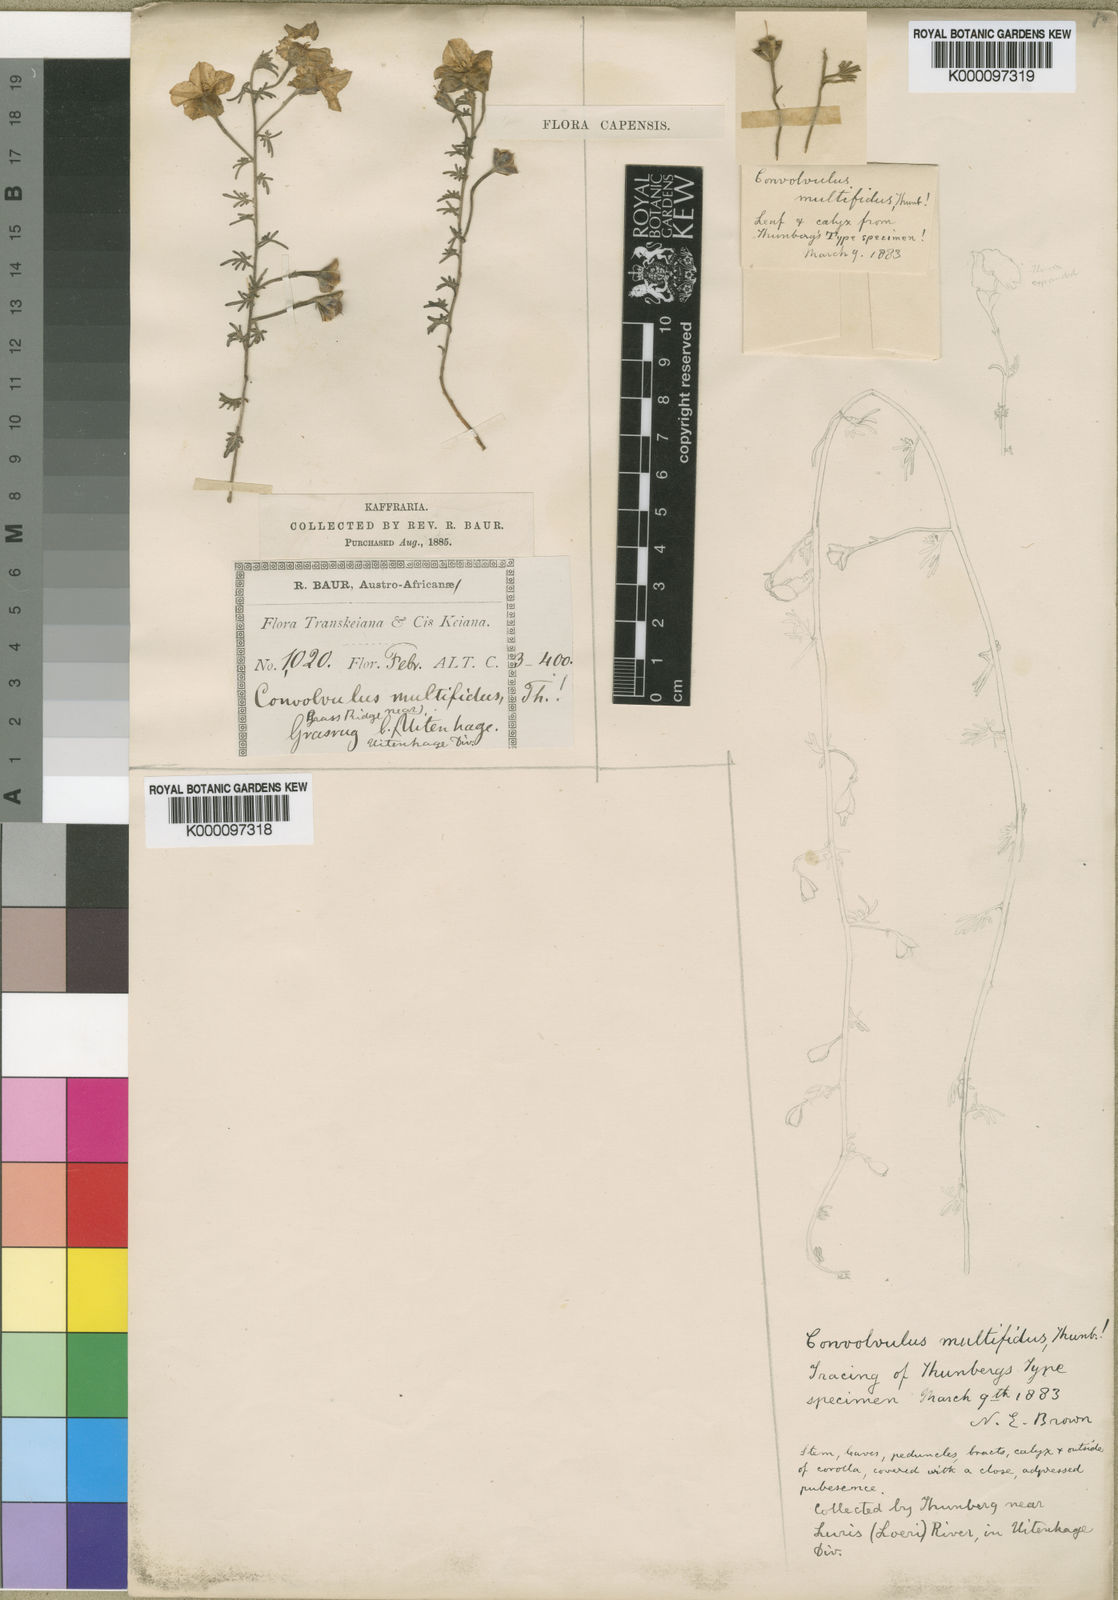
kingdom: Plantae
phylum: Tracheophyta
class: Magnoliopsida
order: Solanales
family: Convolvulaceae
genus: Convolvulus
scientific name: Convolvulus multifidus
